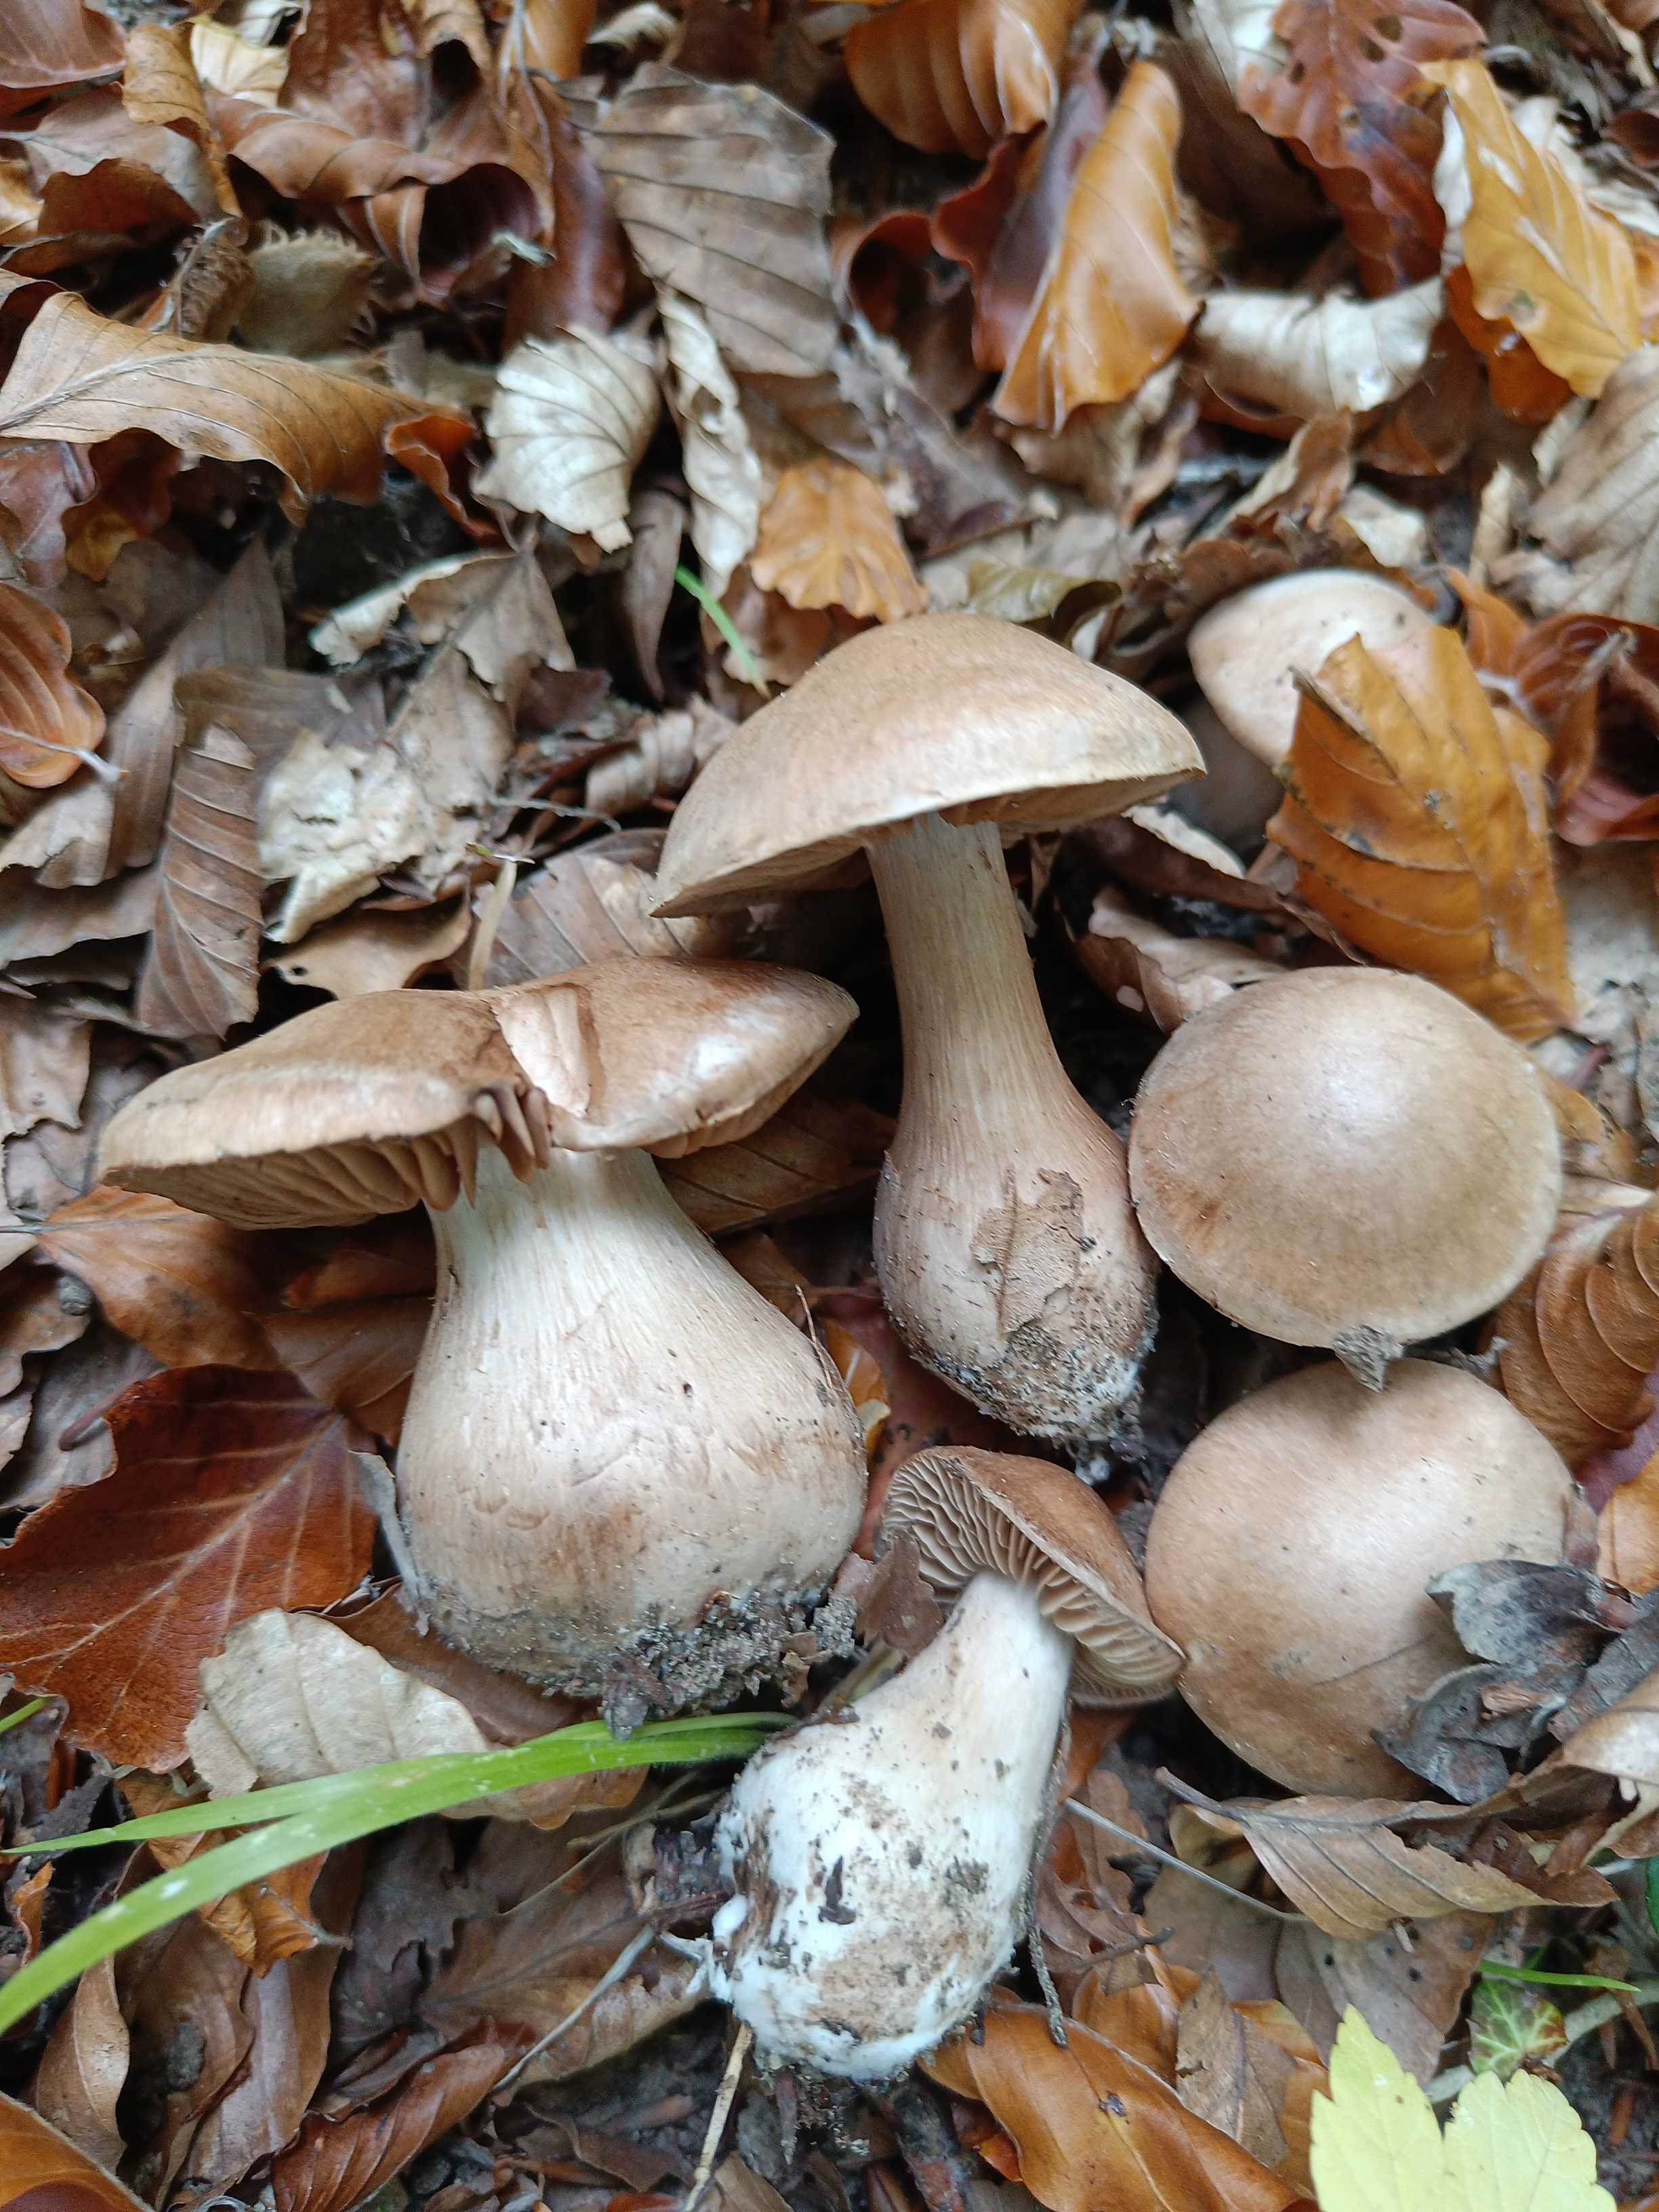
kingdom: Fungi
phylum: Basidiomycota
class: Agaricomycetes
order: Agaricales
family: Cortinariaceae
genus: Cortinarius
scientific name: Cortinarius sociatus
